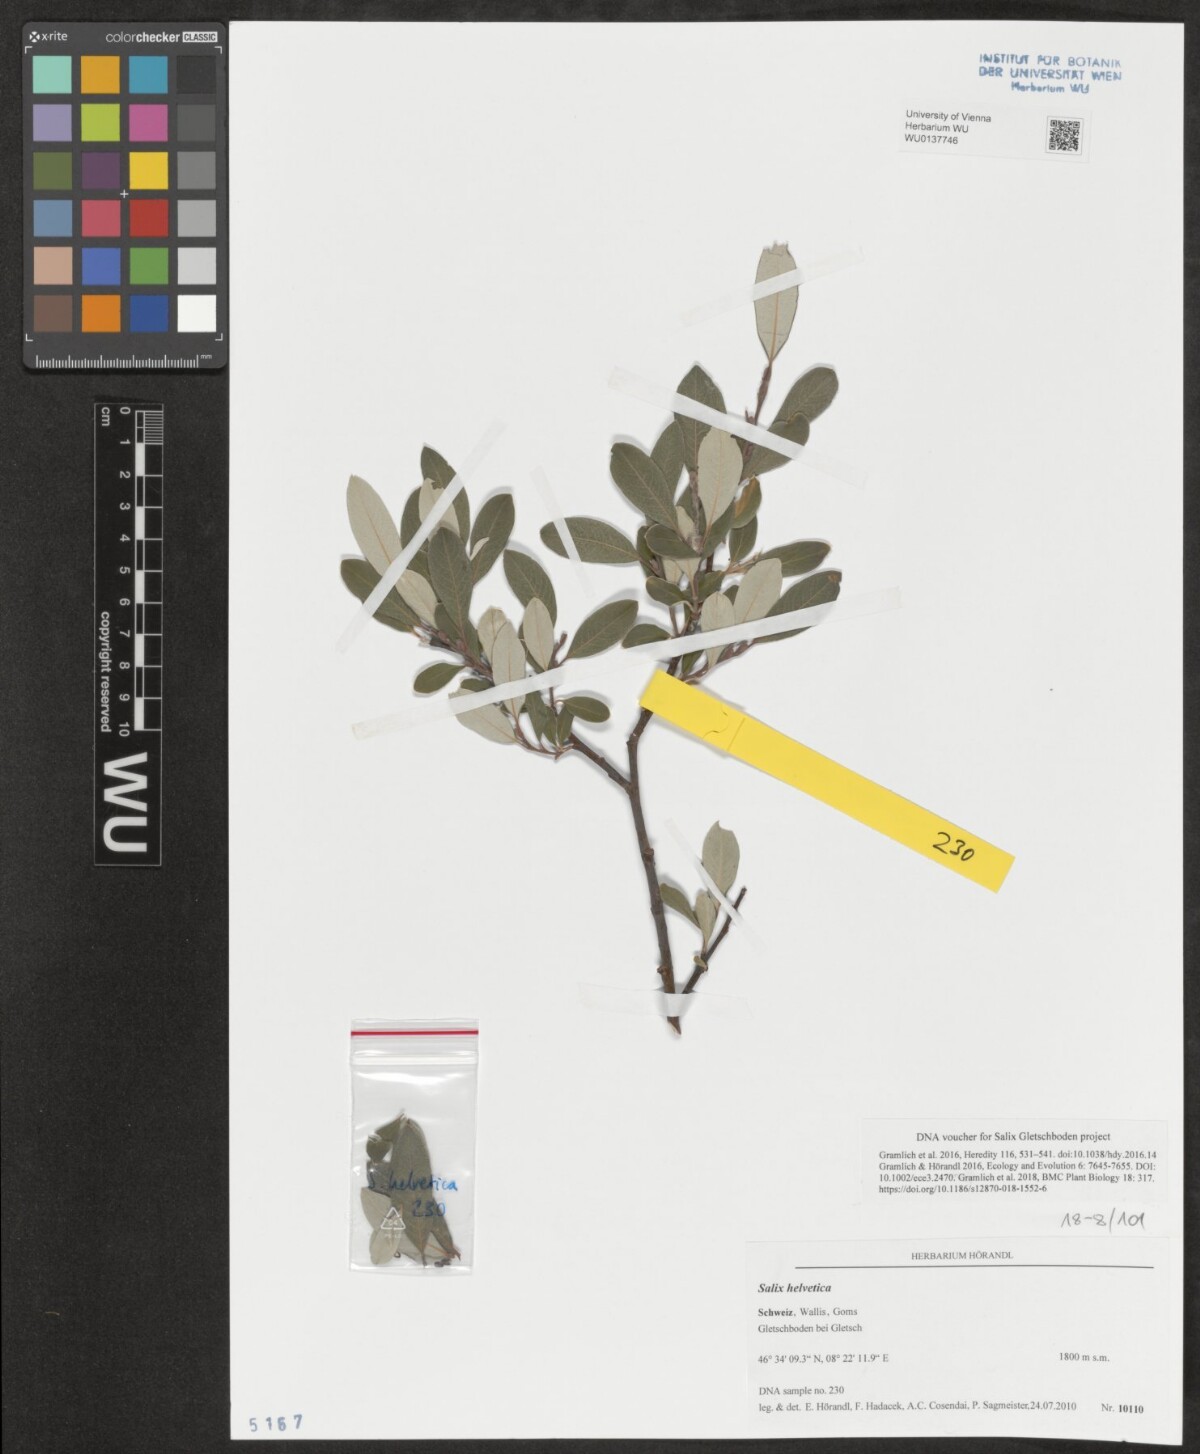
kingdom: Plantae
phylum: Tracheophyta
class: Magnoliopsida
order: Malpighiales
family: Salicaceae
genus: Salix
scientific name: Salix helvetica
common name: Swiss willow
